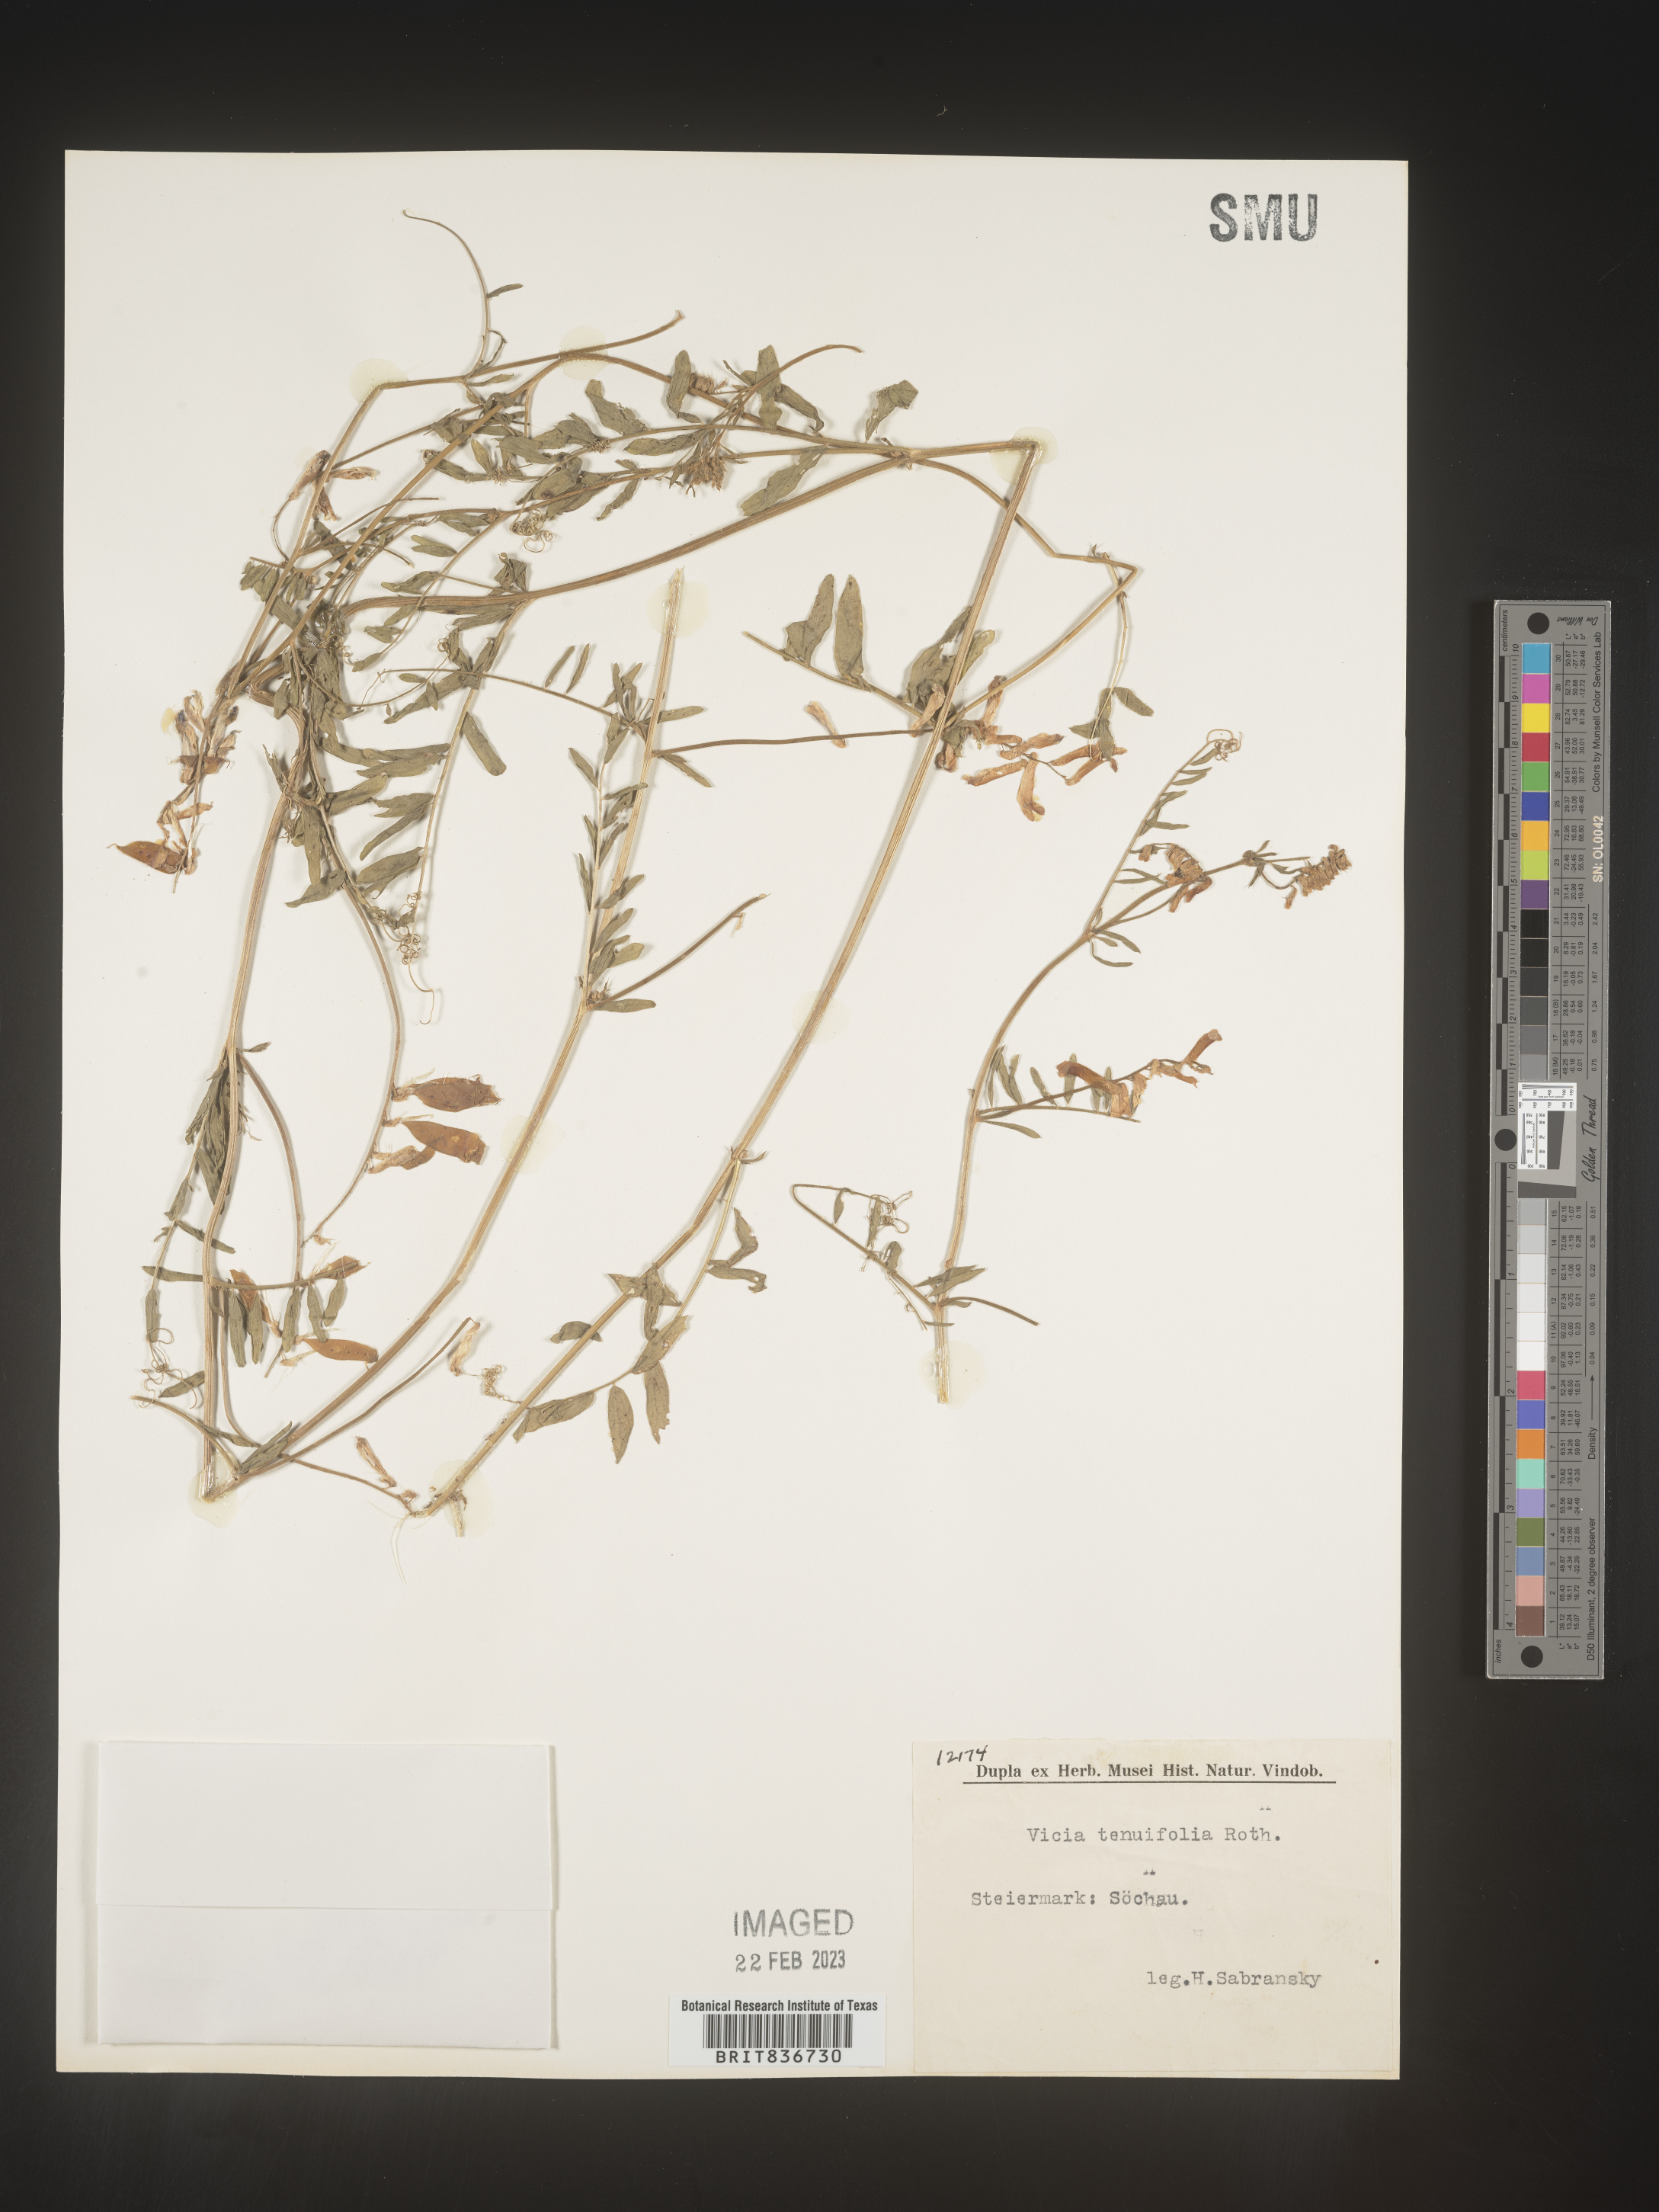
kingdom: Plantae
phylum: Tracheophyta
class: Magnoliopsida
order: Fabales
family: Fabaceae
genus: Vicia
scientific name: Vicia
